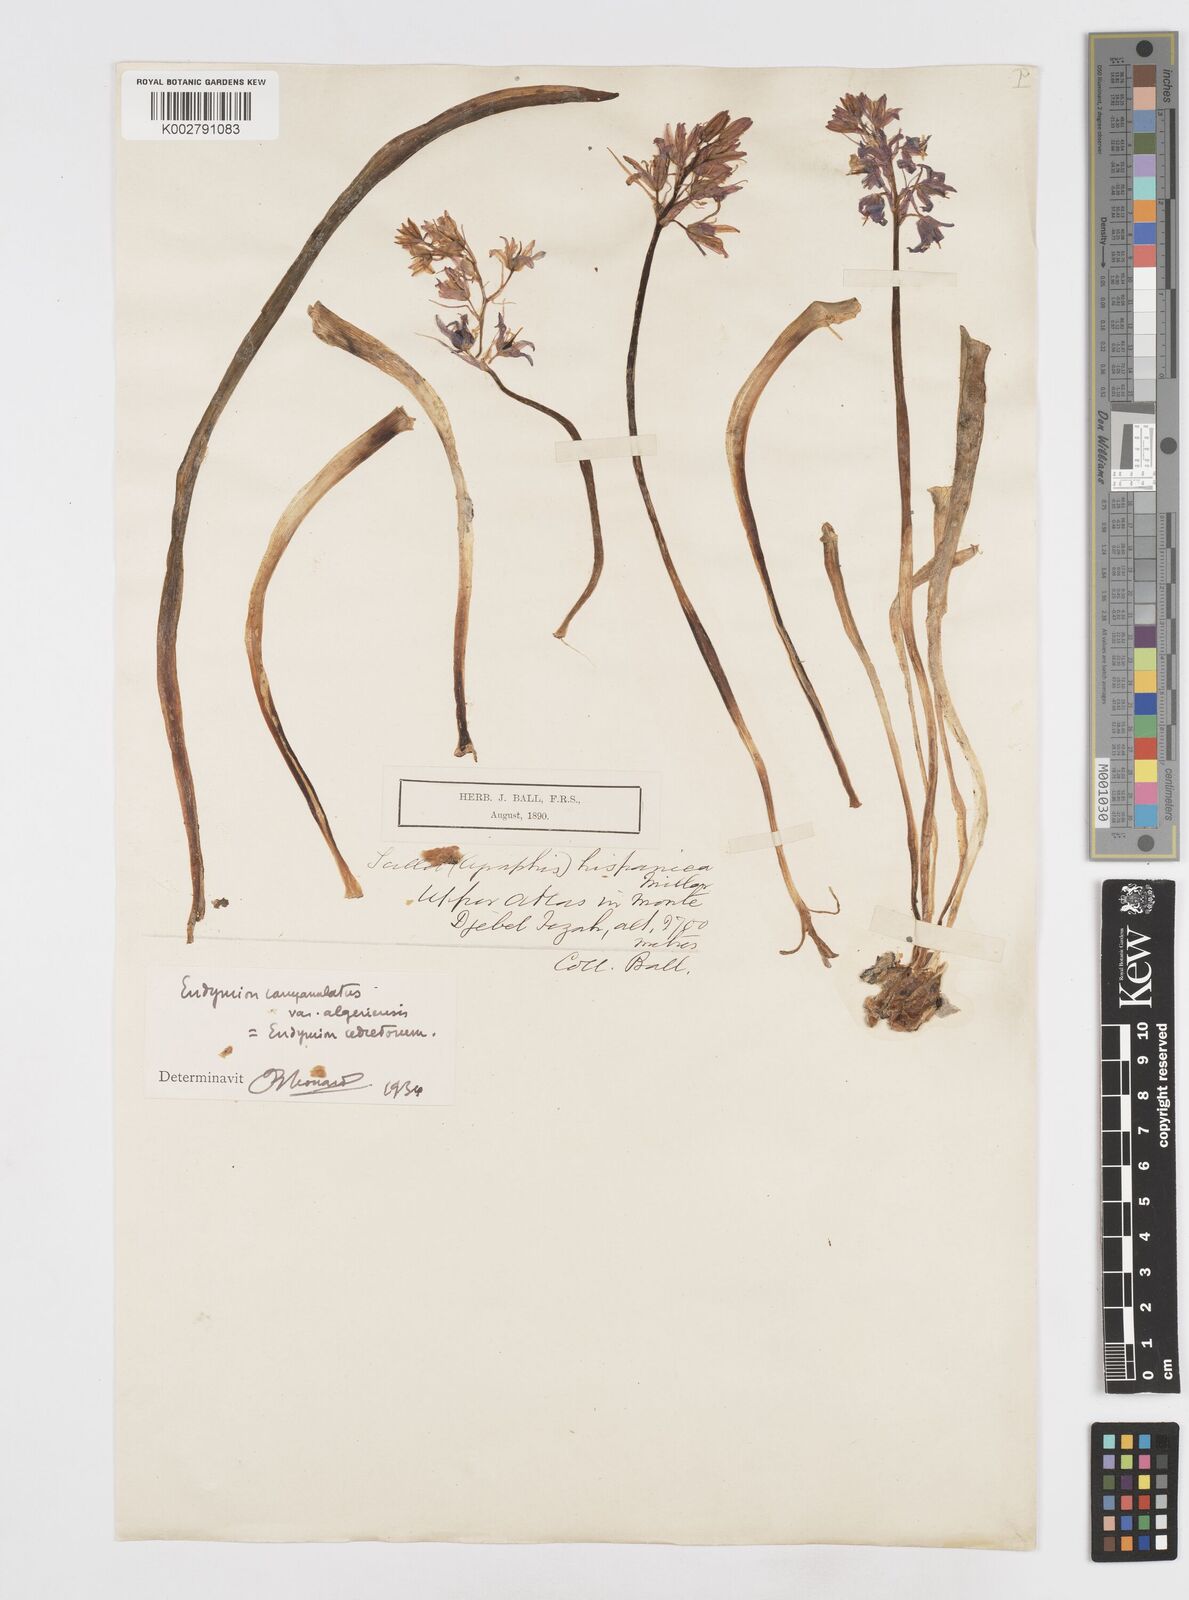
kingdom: Plantae
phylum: Tracheophyta
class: Liliopsida
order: Asparagales
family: Asparagaceae
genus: Hyacinthoides
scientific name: Hyacinthoides hispanica
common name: Spanish bluebell
